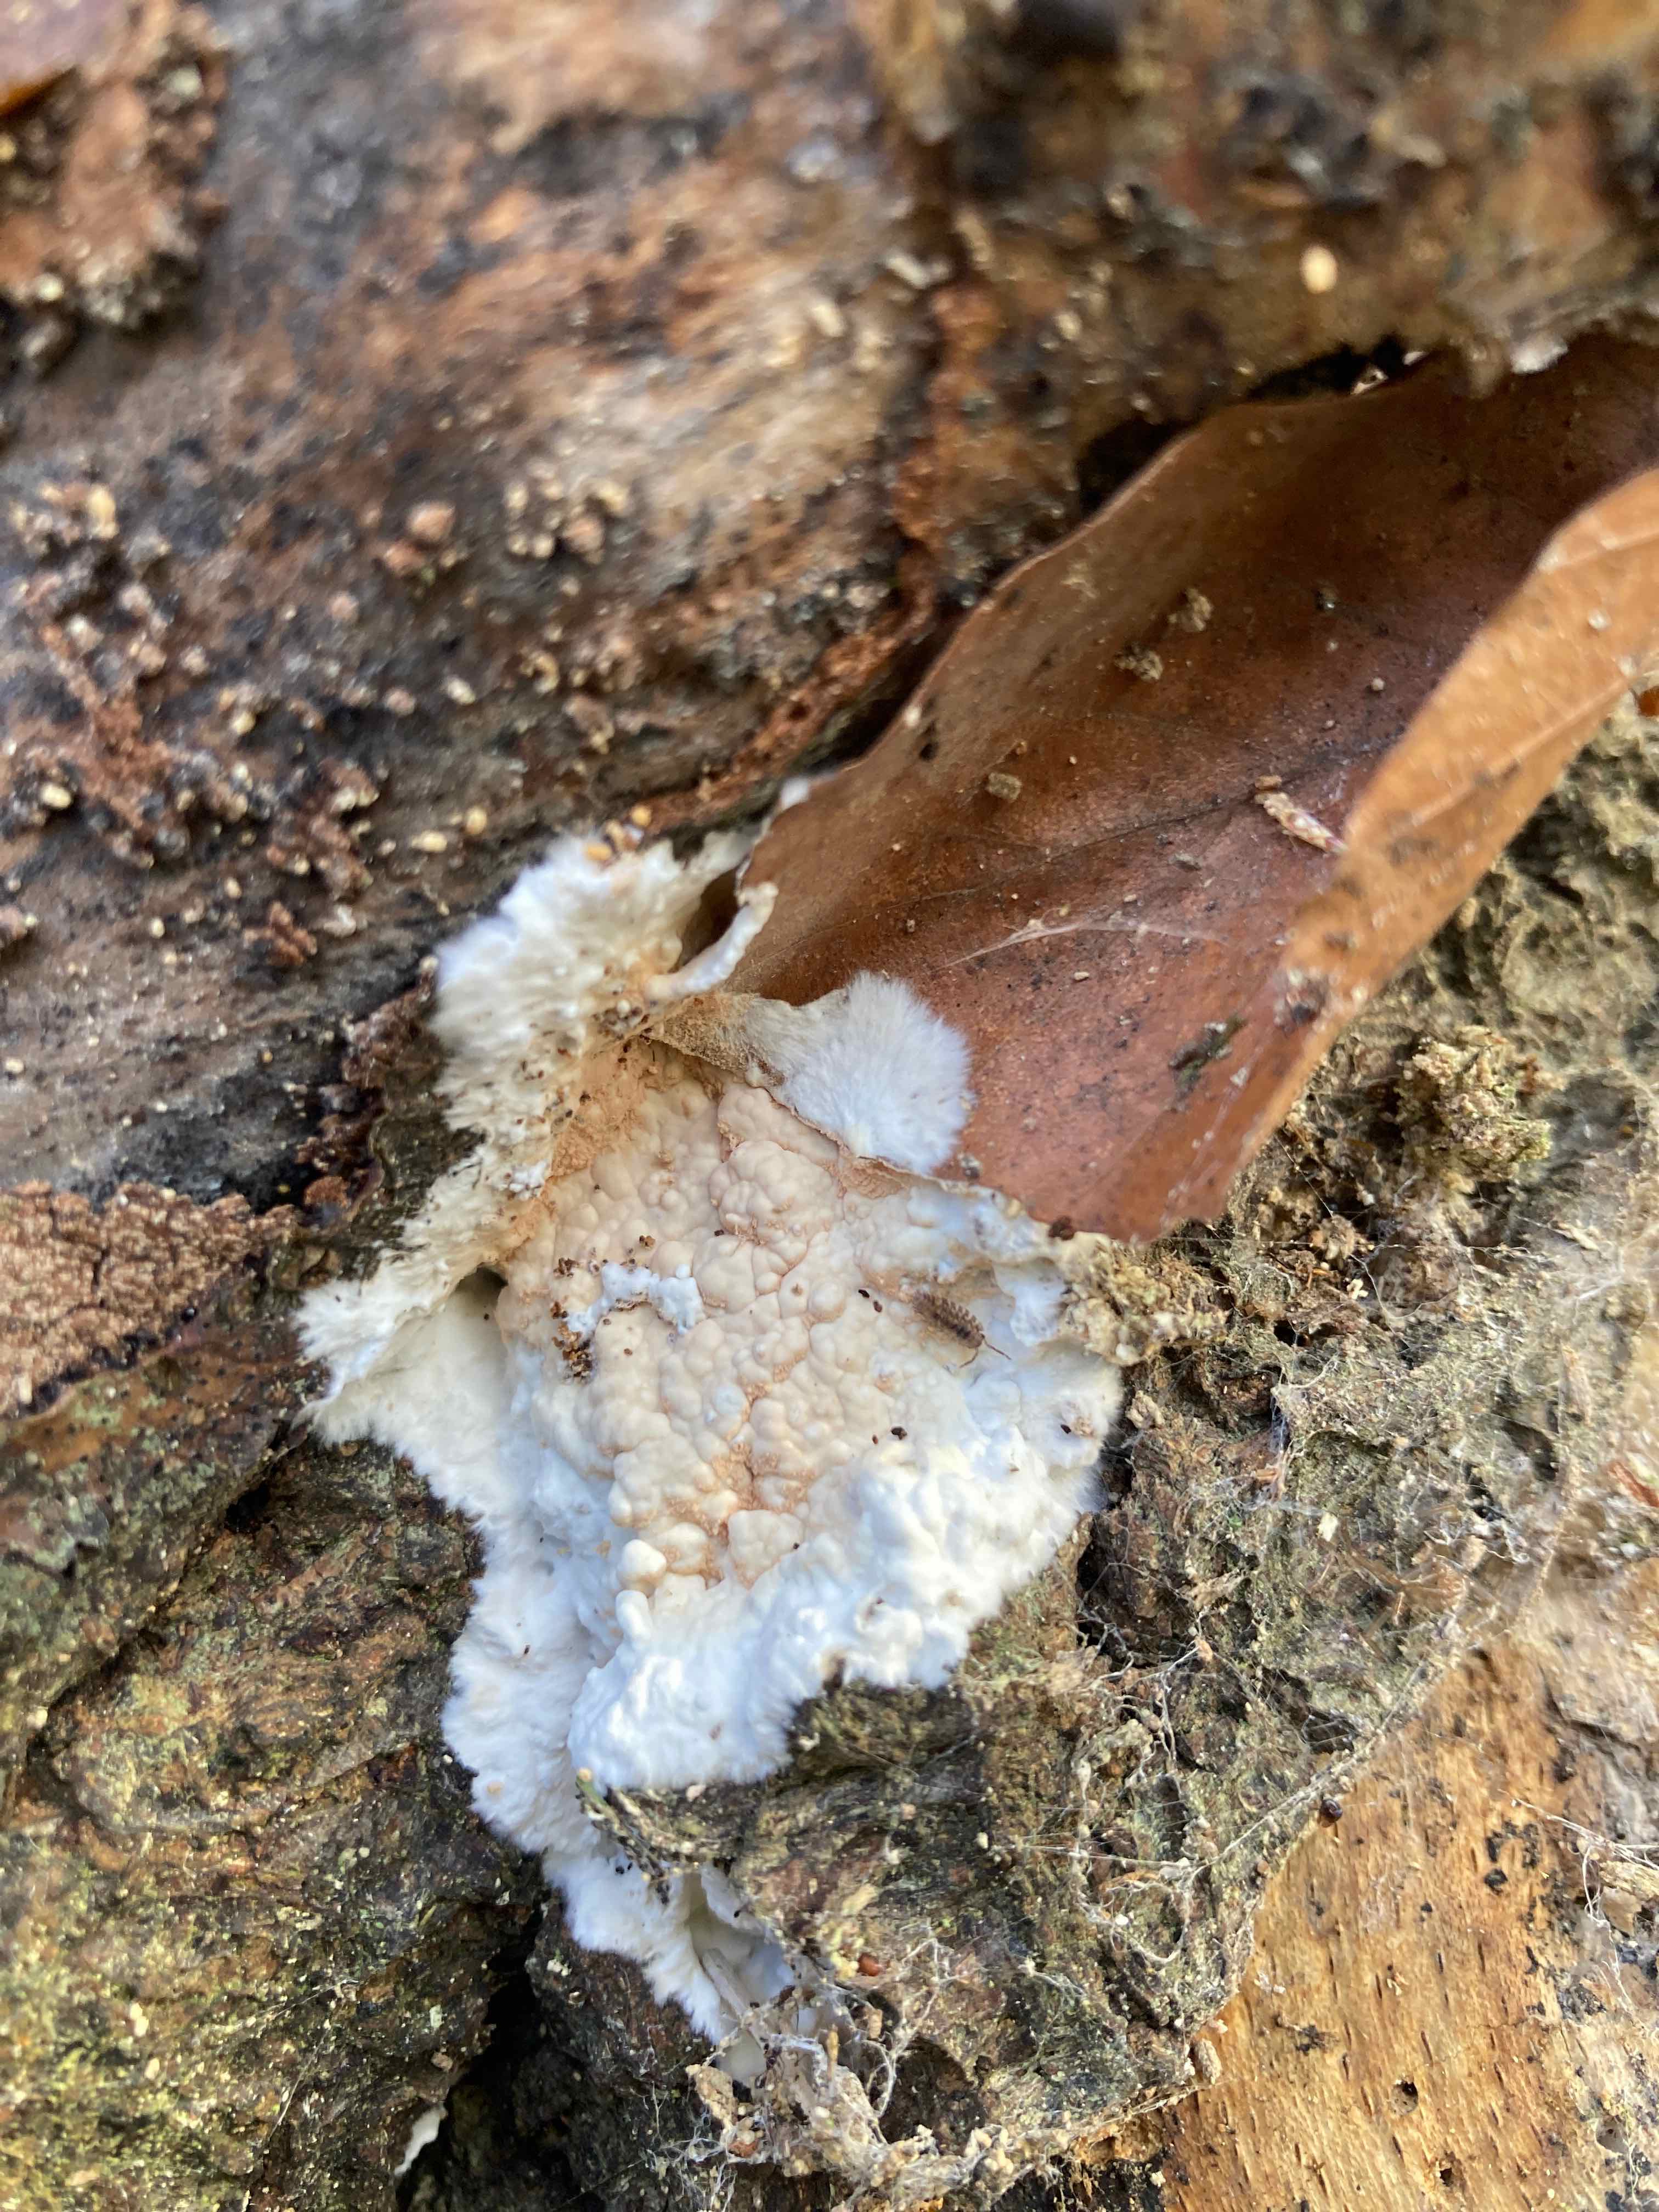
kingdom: Fungi
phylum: Basidiomycota
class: Agaricomycetes
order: Russulales
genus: Gloeohypochnicium
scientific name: Gloeohypochnicium analogum
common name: frugt-kalkskind
